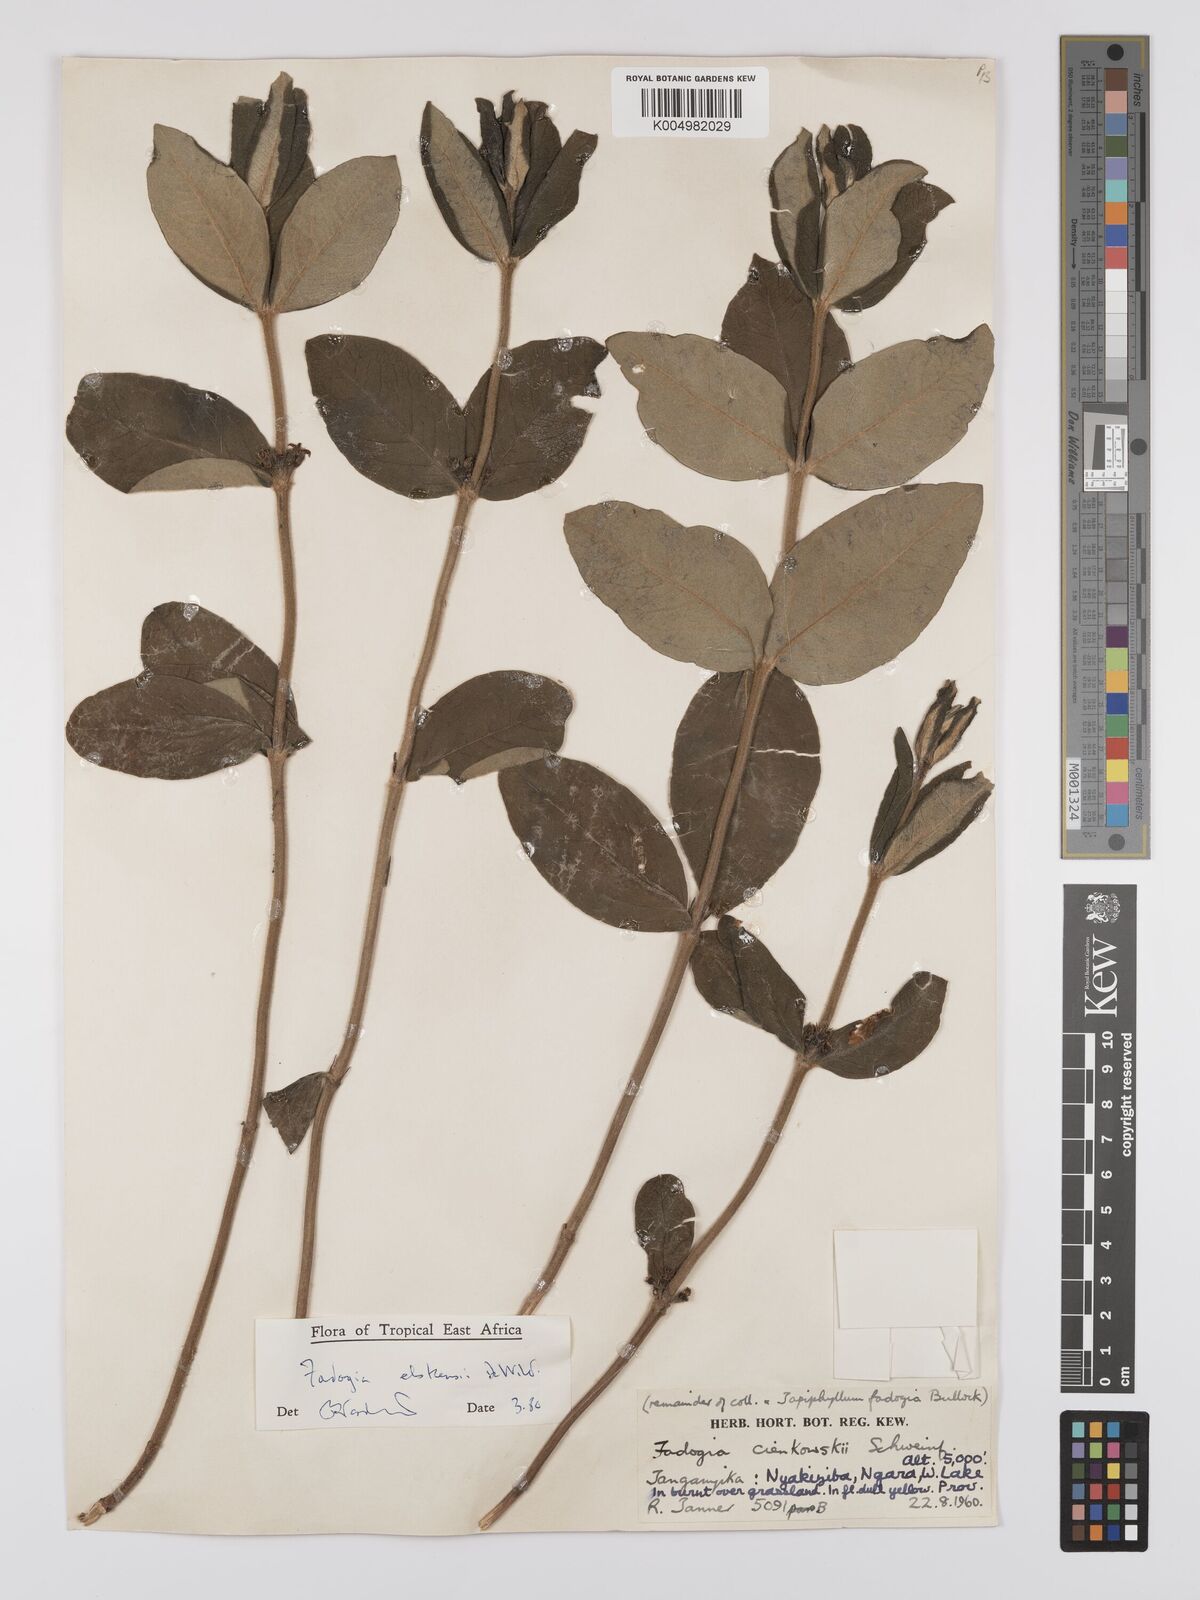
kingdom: Plantae
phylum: Tracheophyta
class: Magnoliopsida
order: Gentianales
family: Rubiaceae
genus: Fadogia
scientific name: Fadogia elskensii
